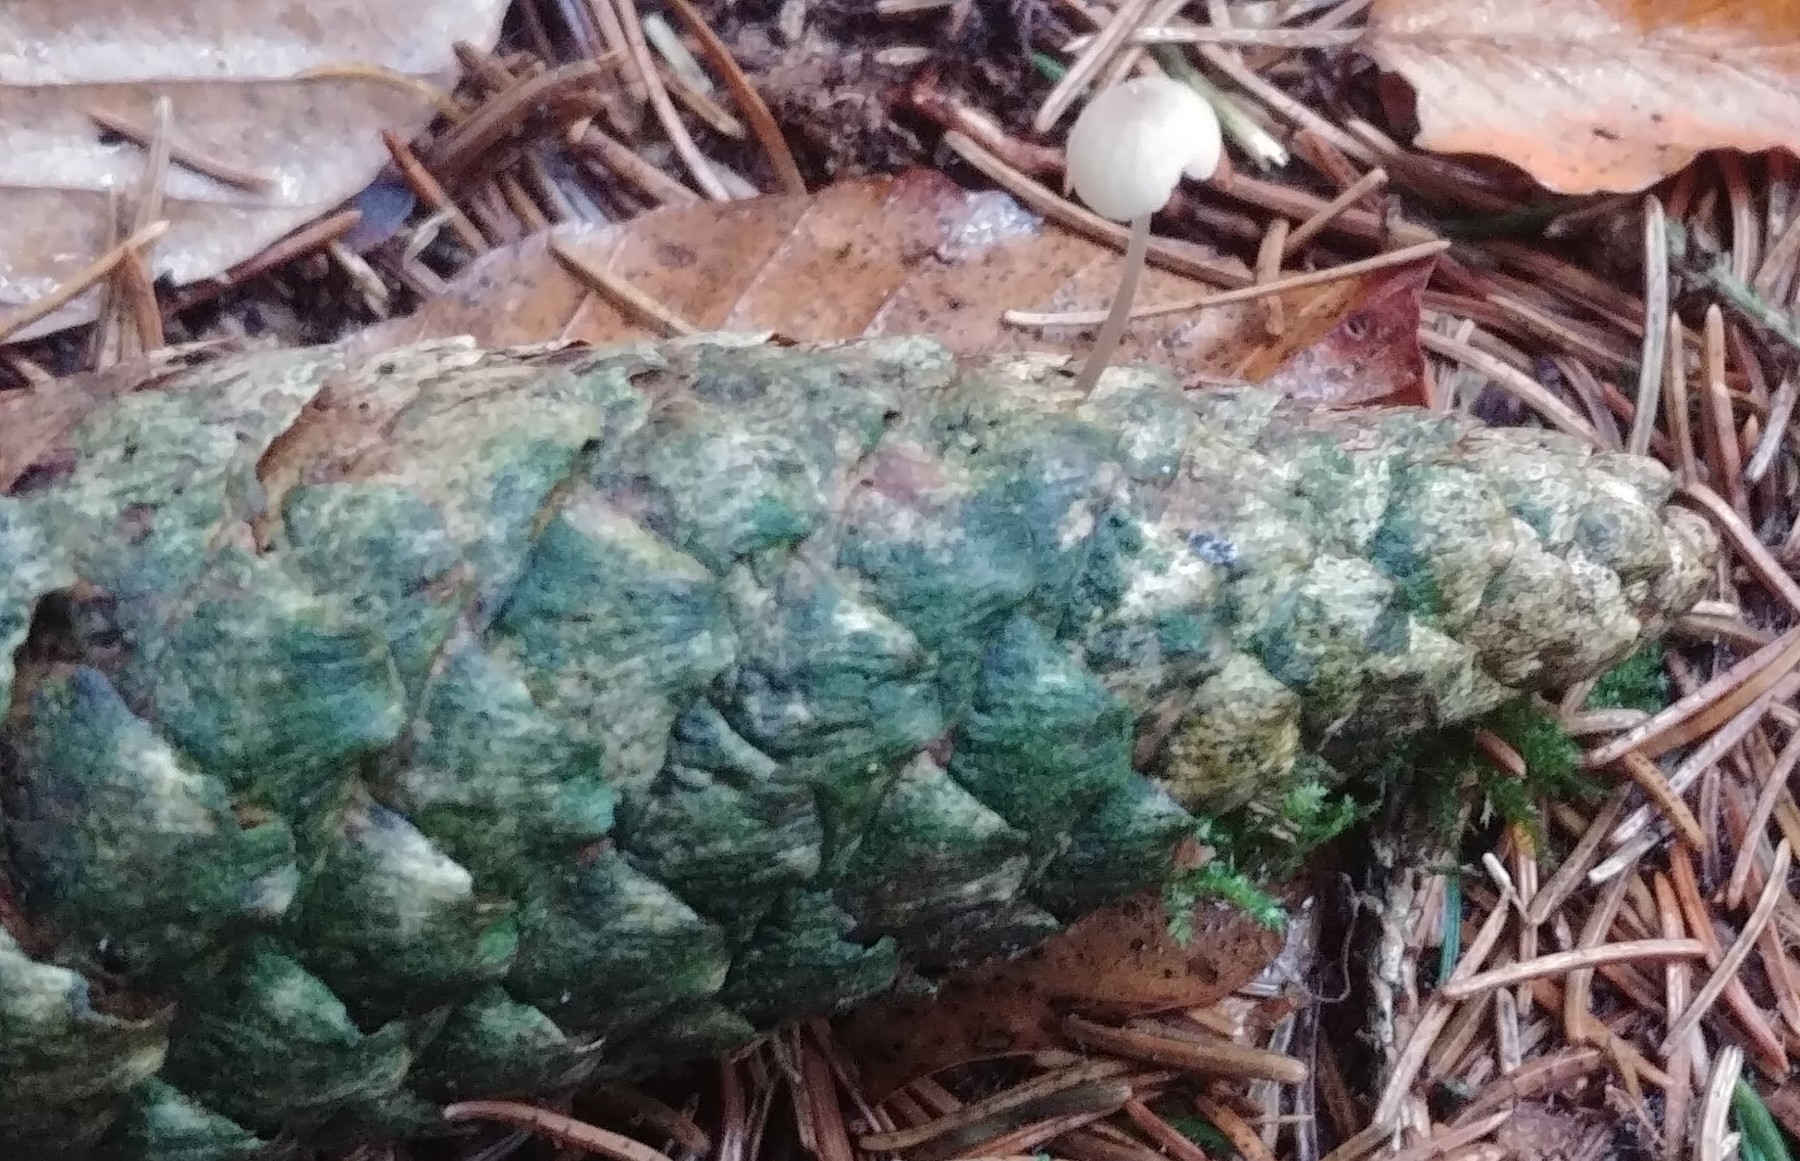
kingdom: Fungi
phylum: Basidiomycota
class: Agaricomycetes
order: Agaricales
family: Mycenaceae
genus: Mycena
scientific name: Mycena
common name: huesvamp
